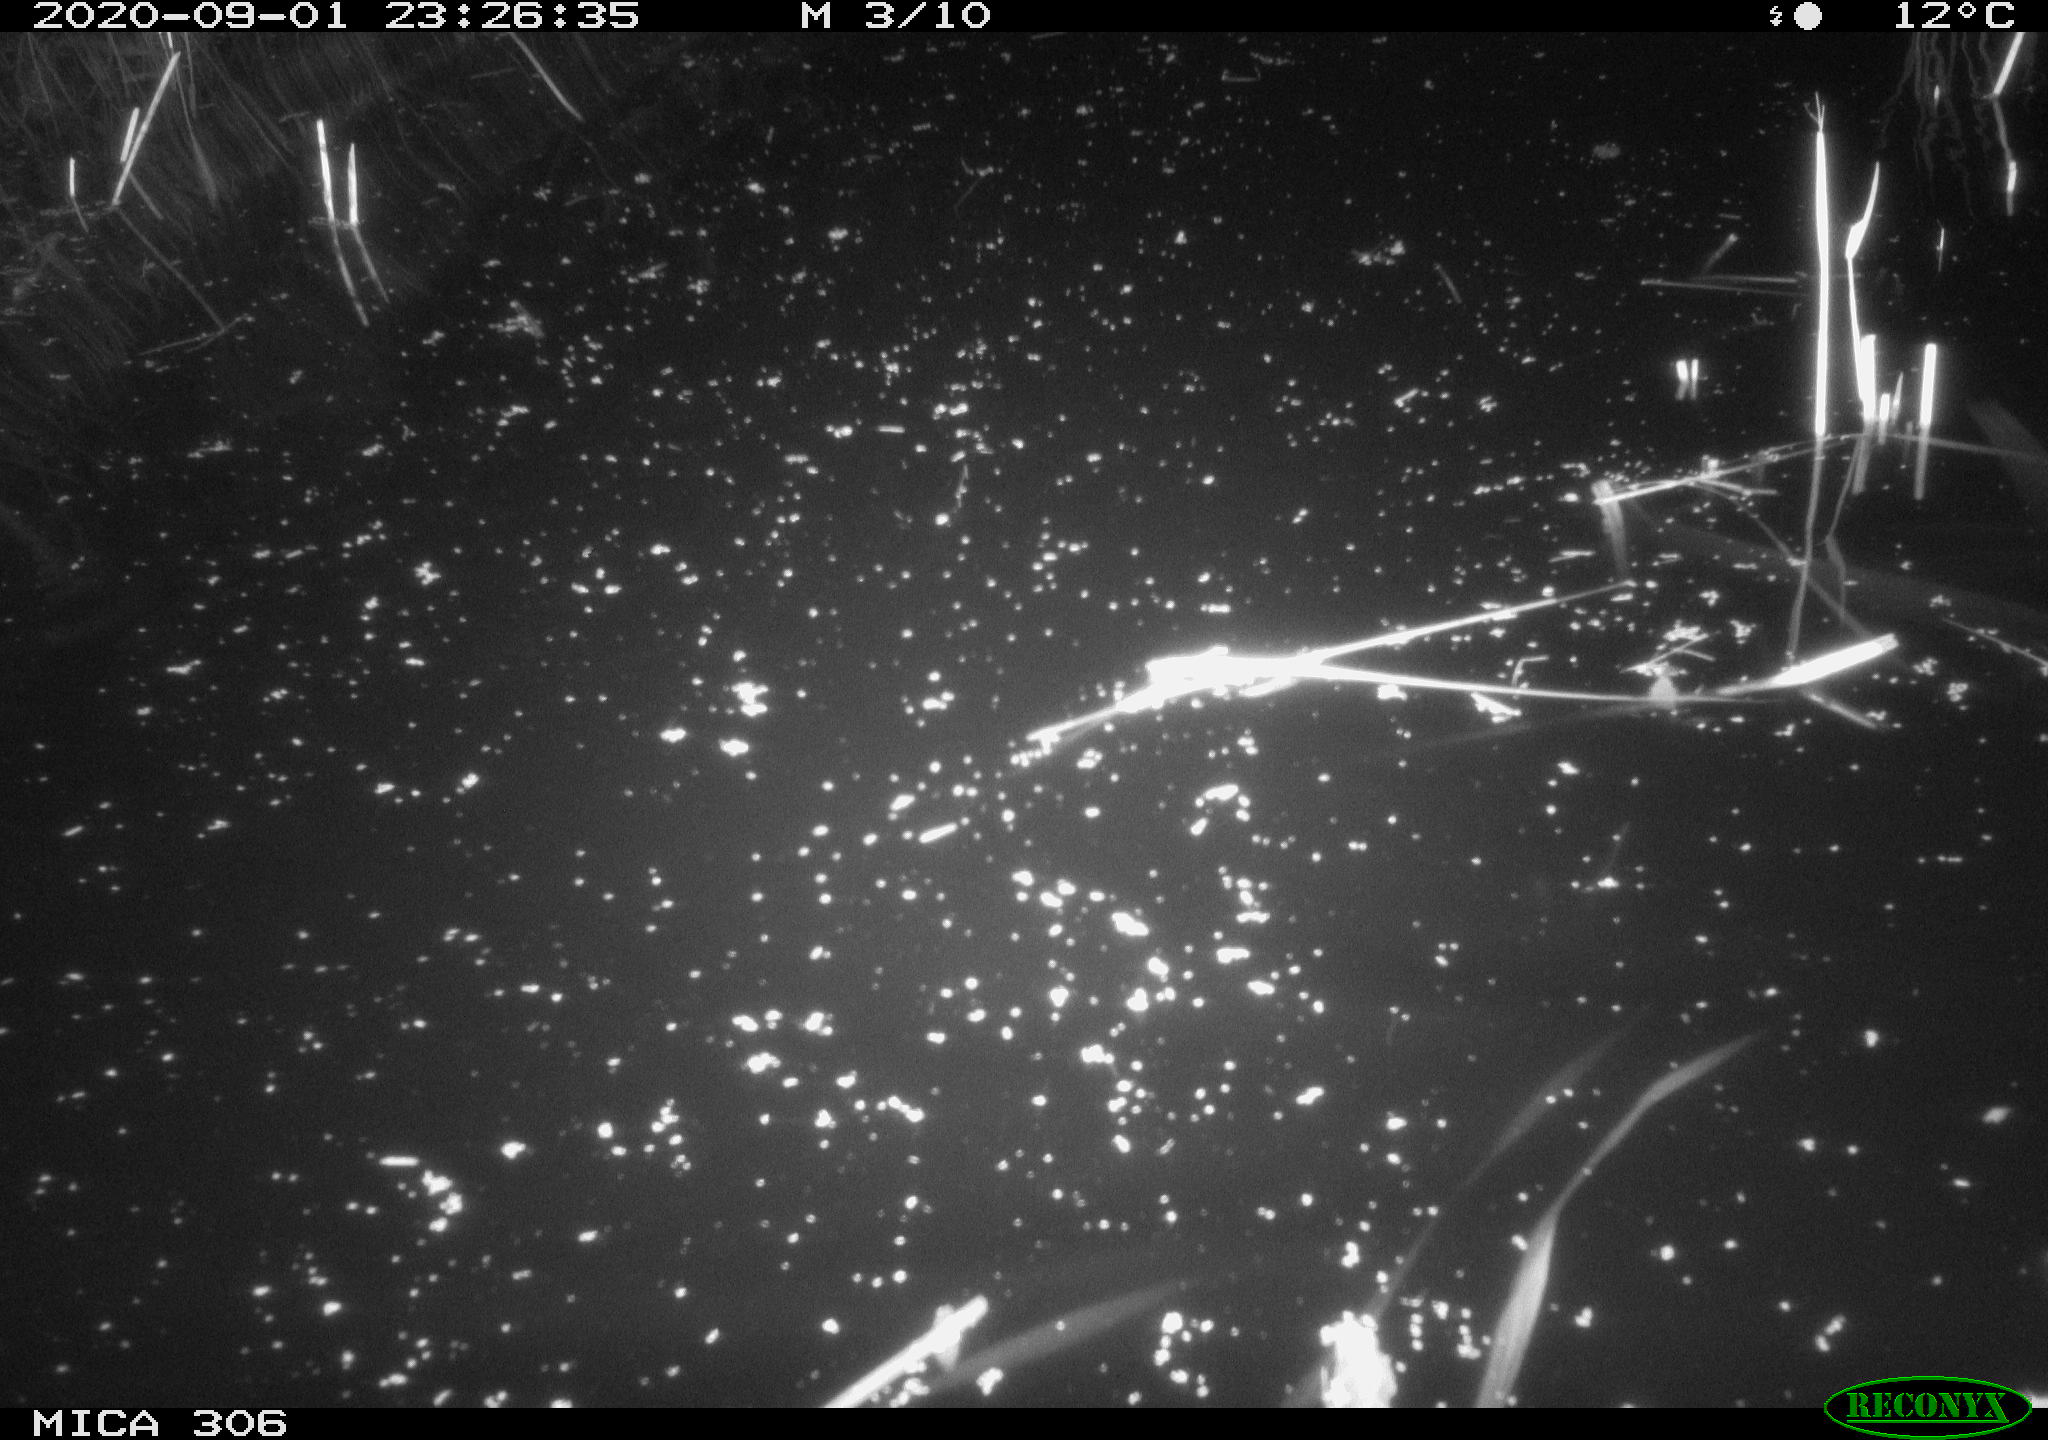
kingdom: Animalia
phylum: Chordata
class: Mammalia
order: Rodentia
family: Muridae
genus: Rattus
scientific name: Rattus norvegicus
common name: Brown rat
